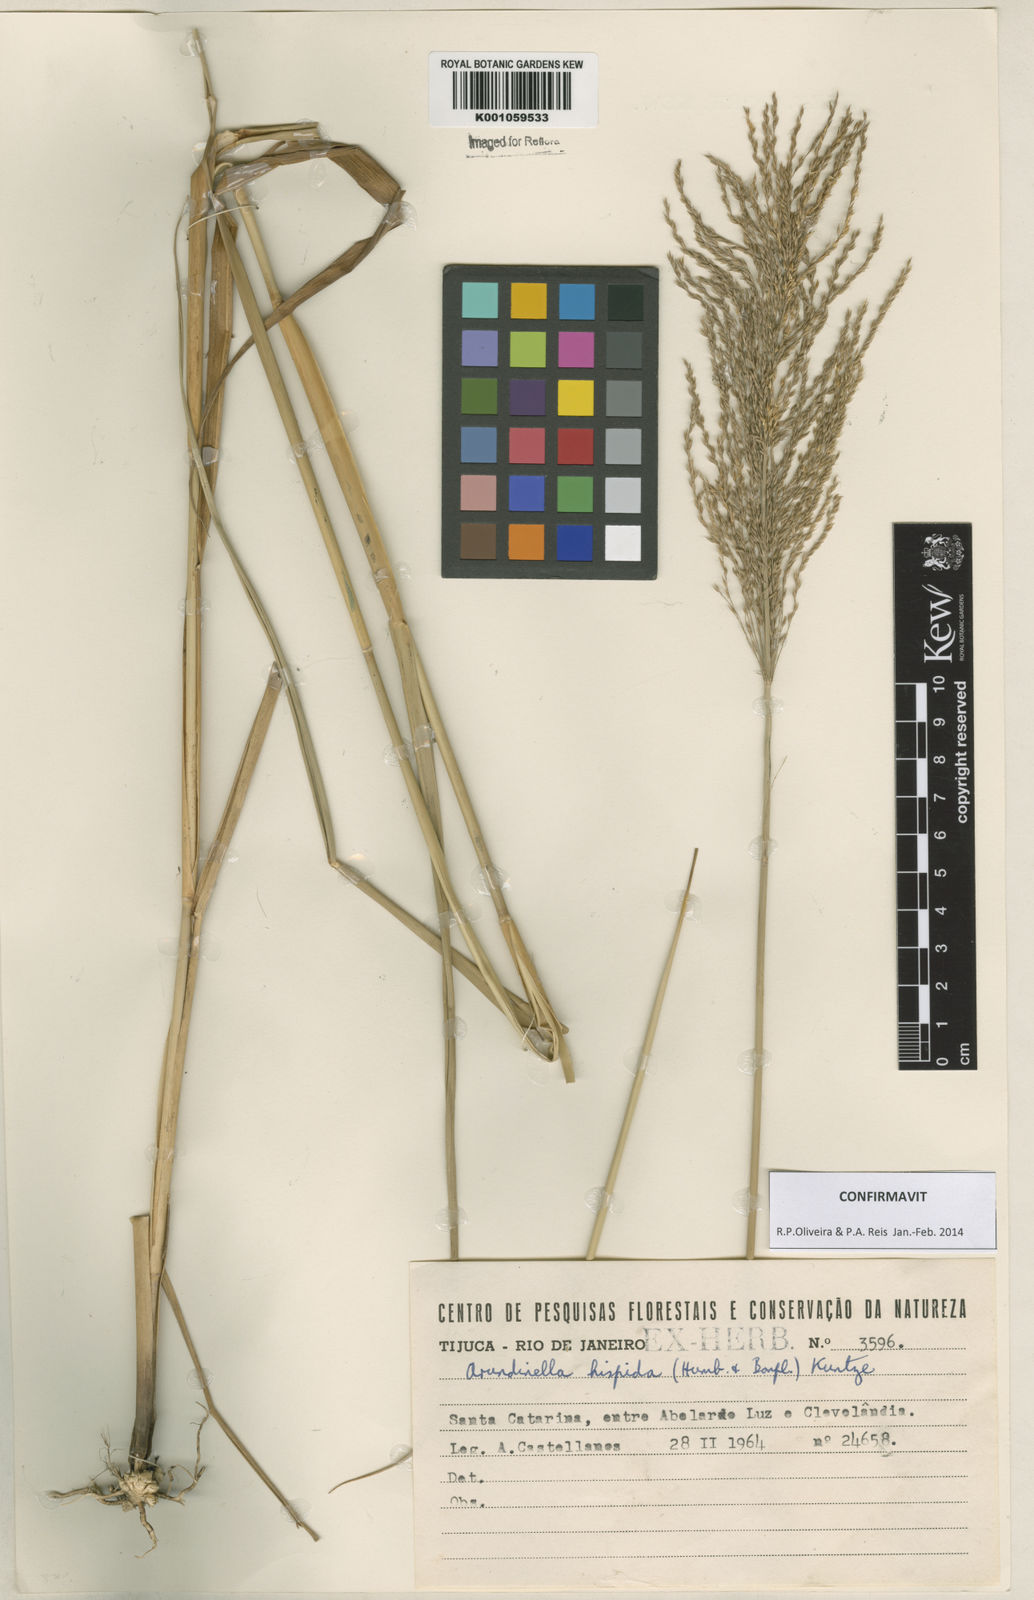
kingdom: Plantae
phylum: Tracheophyta
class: Liliopsida
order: Poales
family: Poaceae
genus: Arundinella
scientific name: Arundinella hispida
